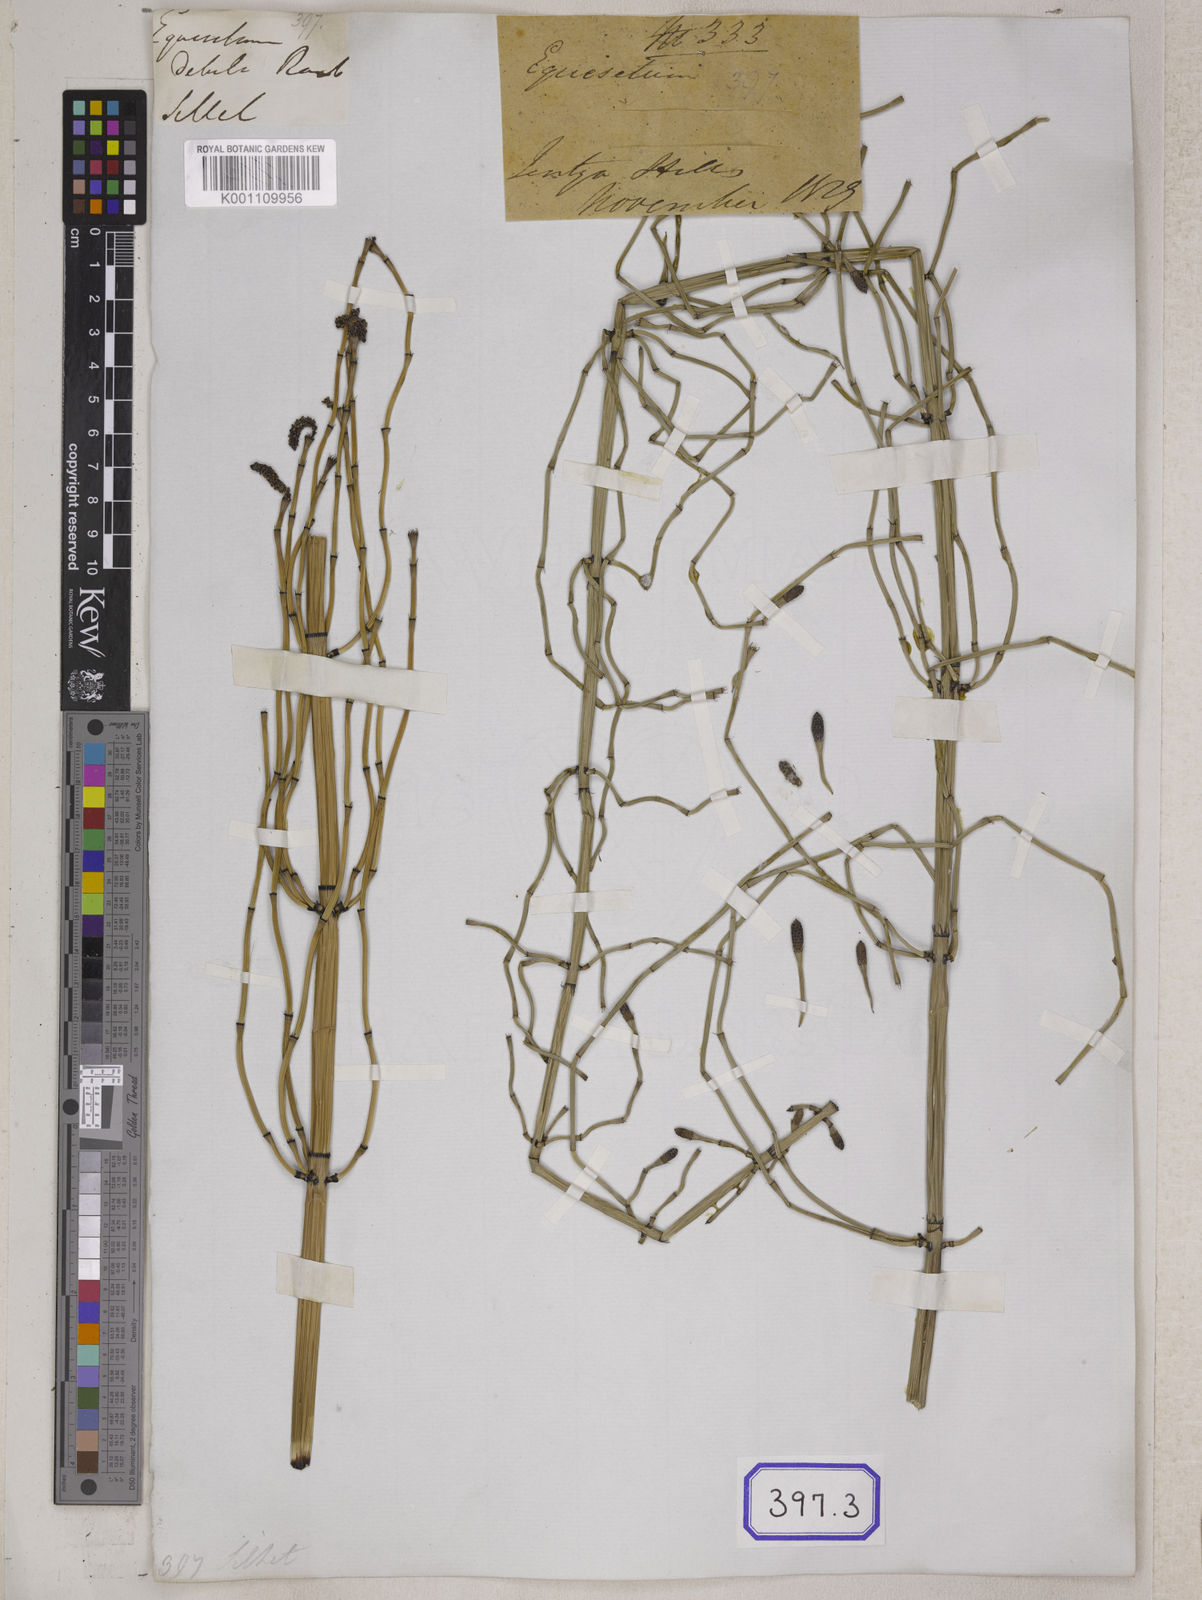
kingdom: Plantae
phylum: Tracheophyta
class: Polypodiopsida
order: Equisetales
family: Equisetaceae
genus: Equisetum
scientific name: Equisetum
